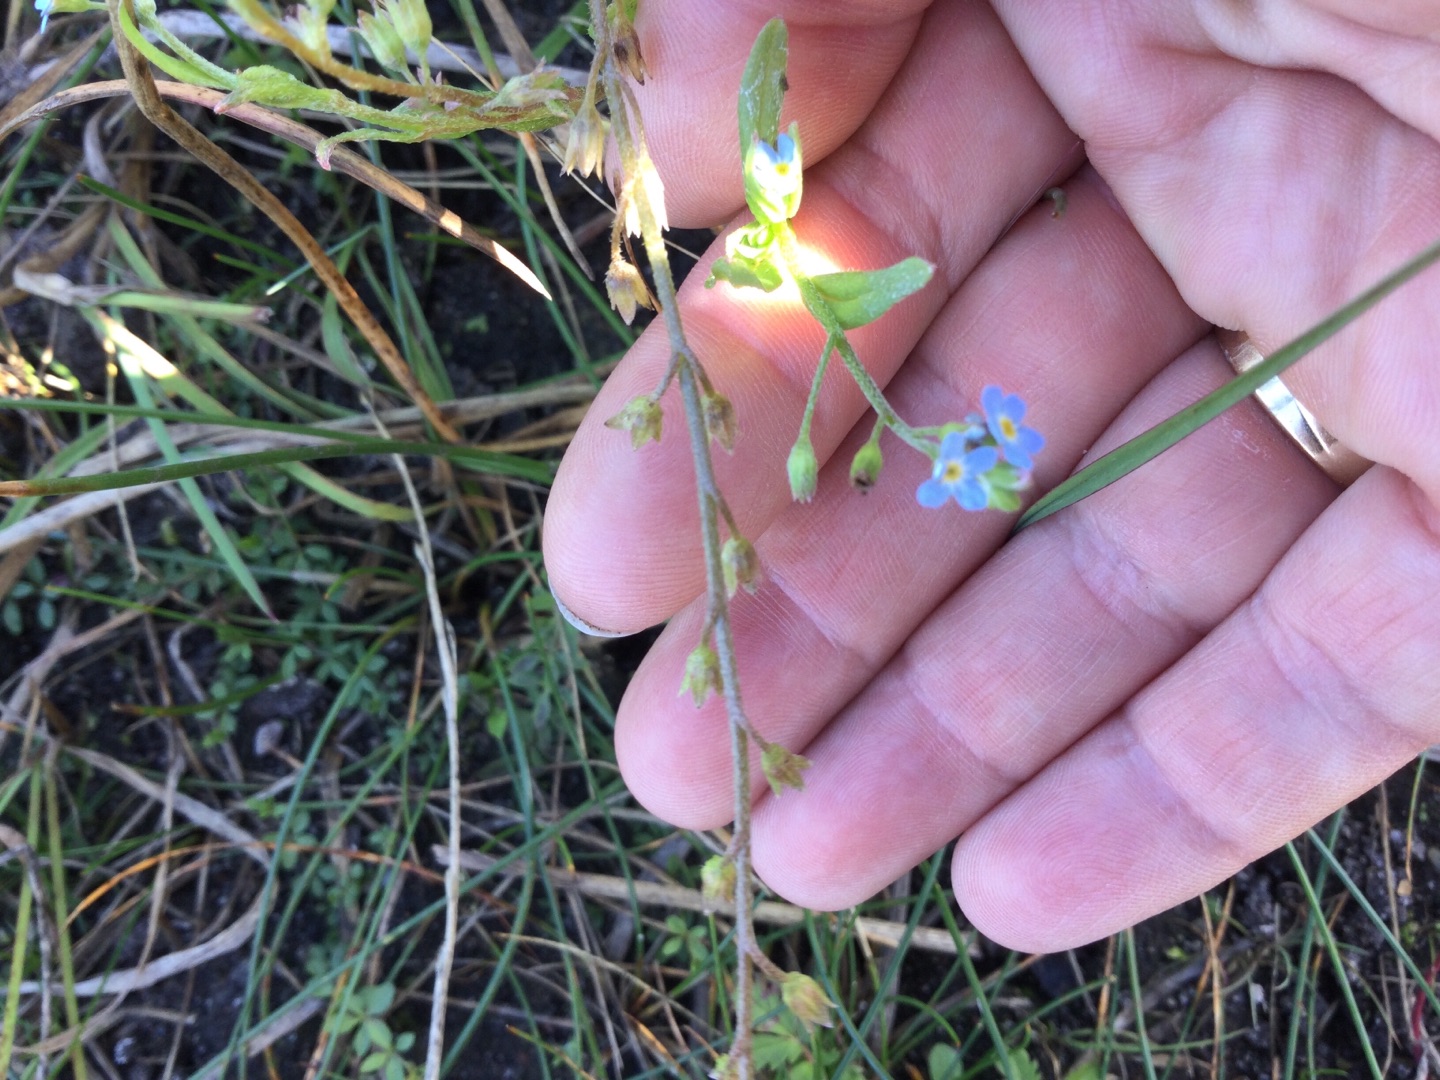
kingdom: Plantae
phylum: Tracheophyta
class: Magnoliopsida
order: Boraginales
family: Boraginaceae
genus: Myosotis
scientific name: Myosotis arvensis
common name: Mark-forglemmigej
